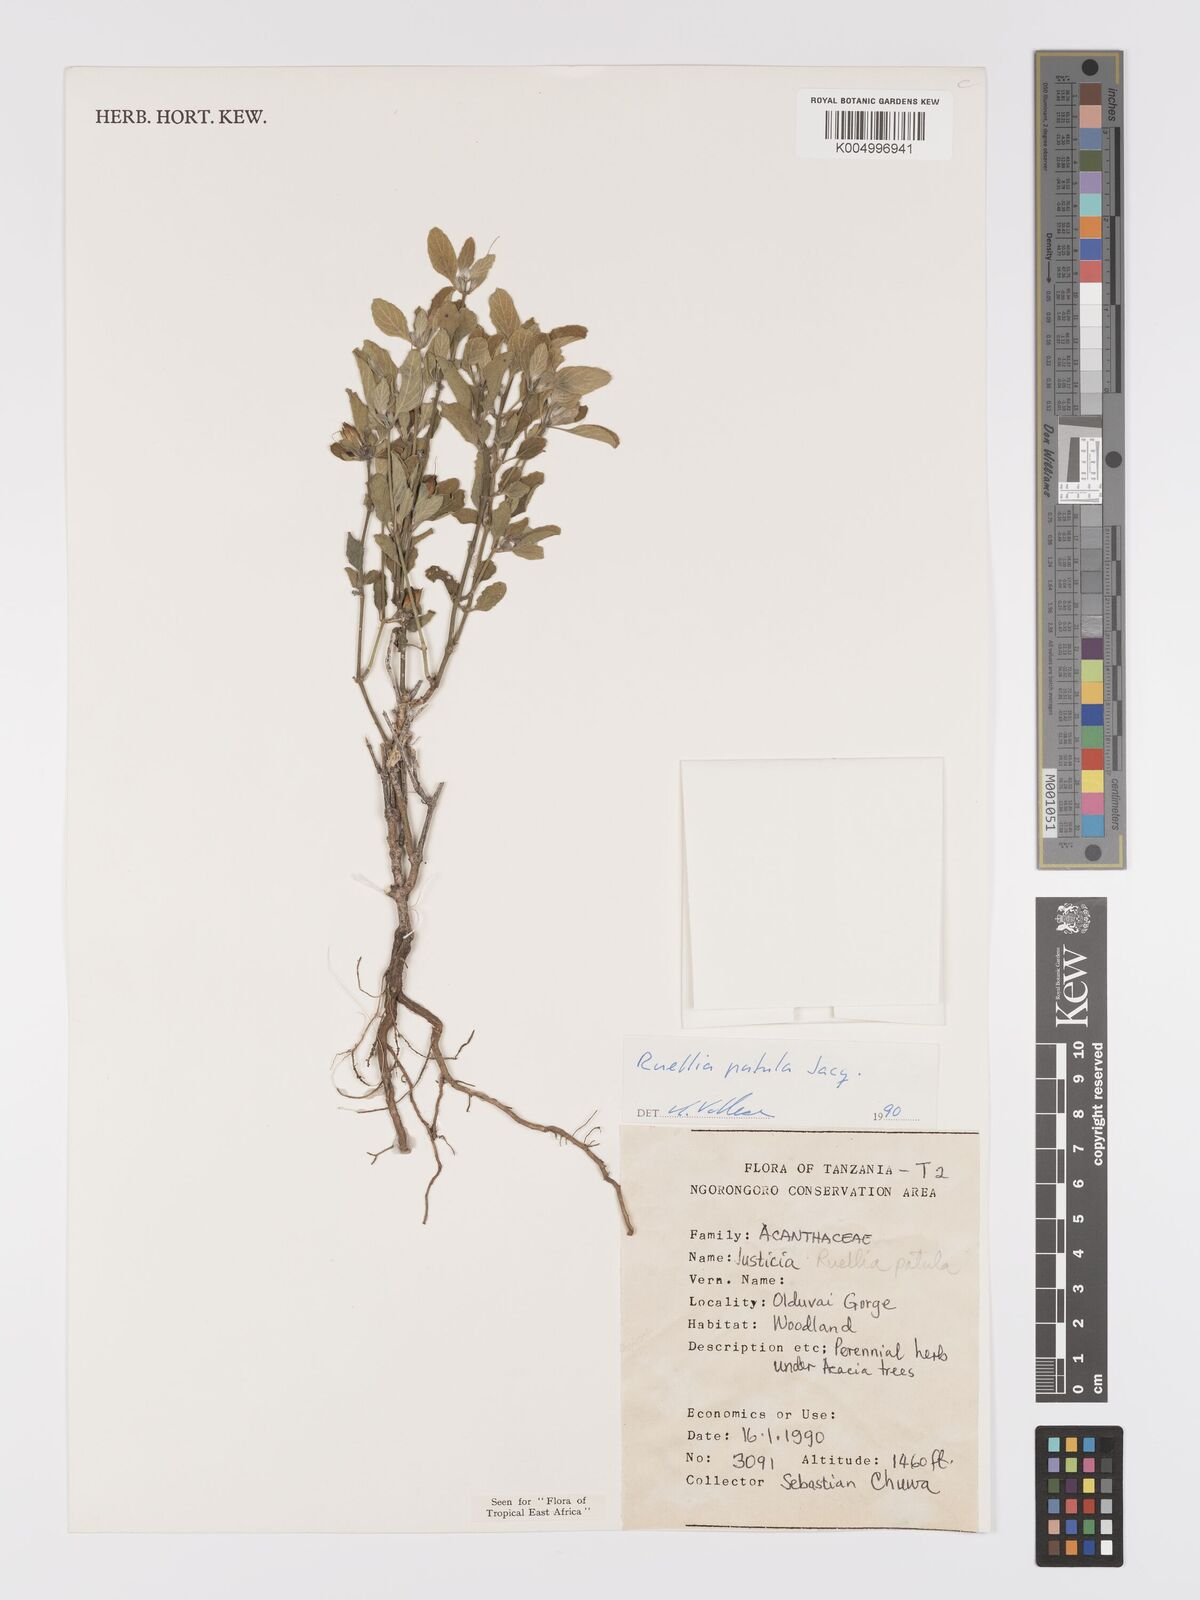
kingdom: Plantae
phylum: Tracheophyta
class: Magnoliopsida
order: Lamiales
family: Acanthaceae
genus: Ruellia
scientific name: Ruellia patula
